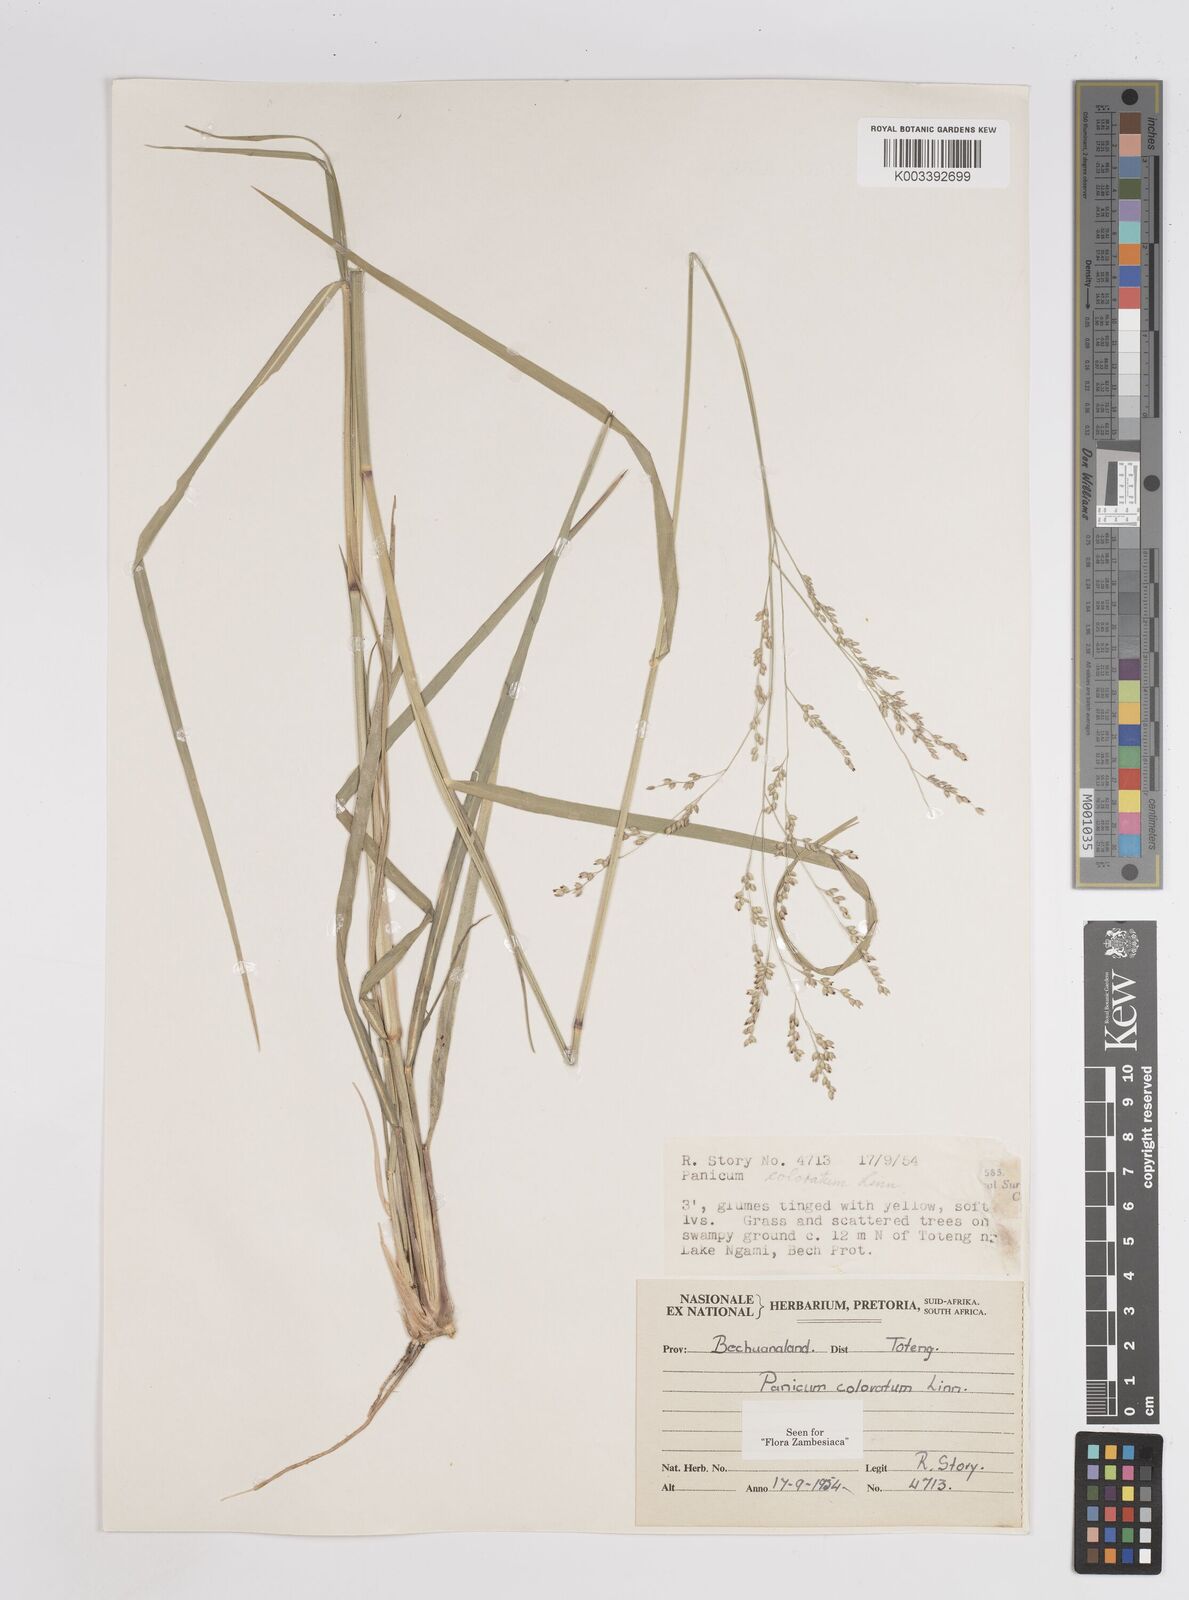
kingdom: Plantae
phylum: Tracheophyta
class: Liliopsida
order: Poales
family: Poaceae
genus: Panicum
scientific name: Panicum coloratum
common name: Kleingrass
